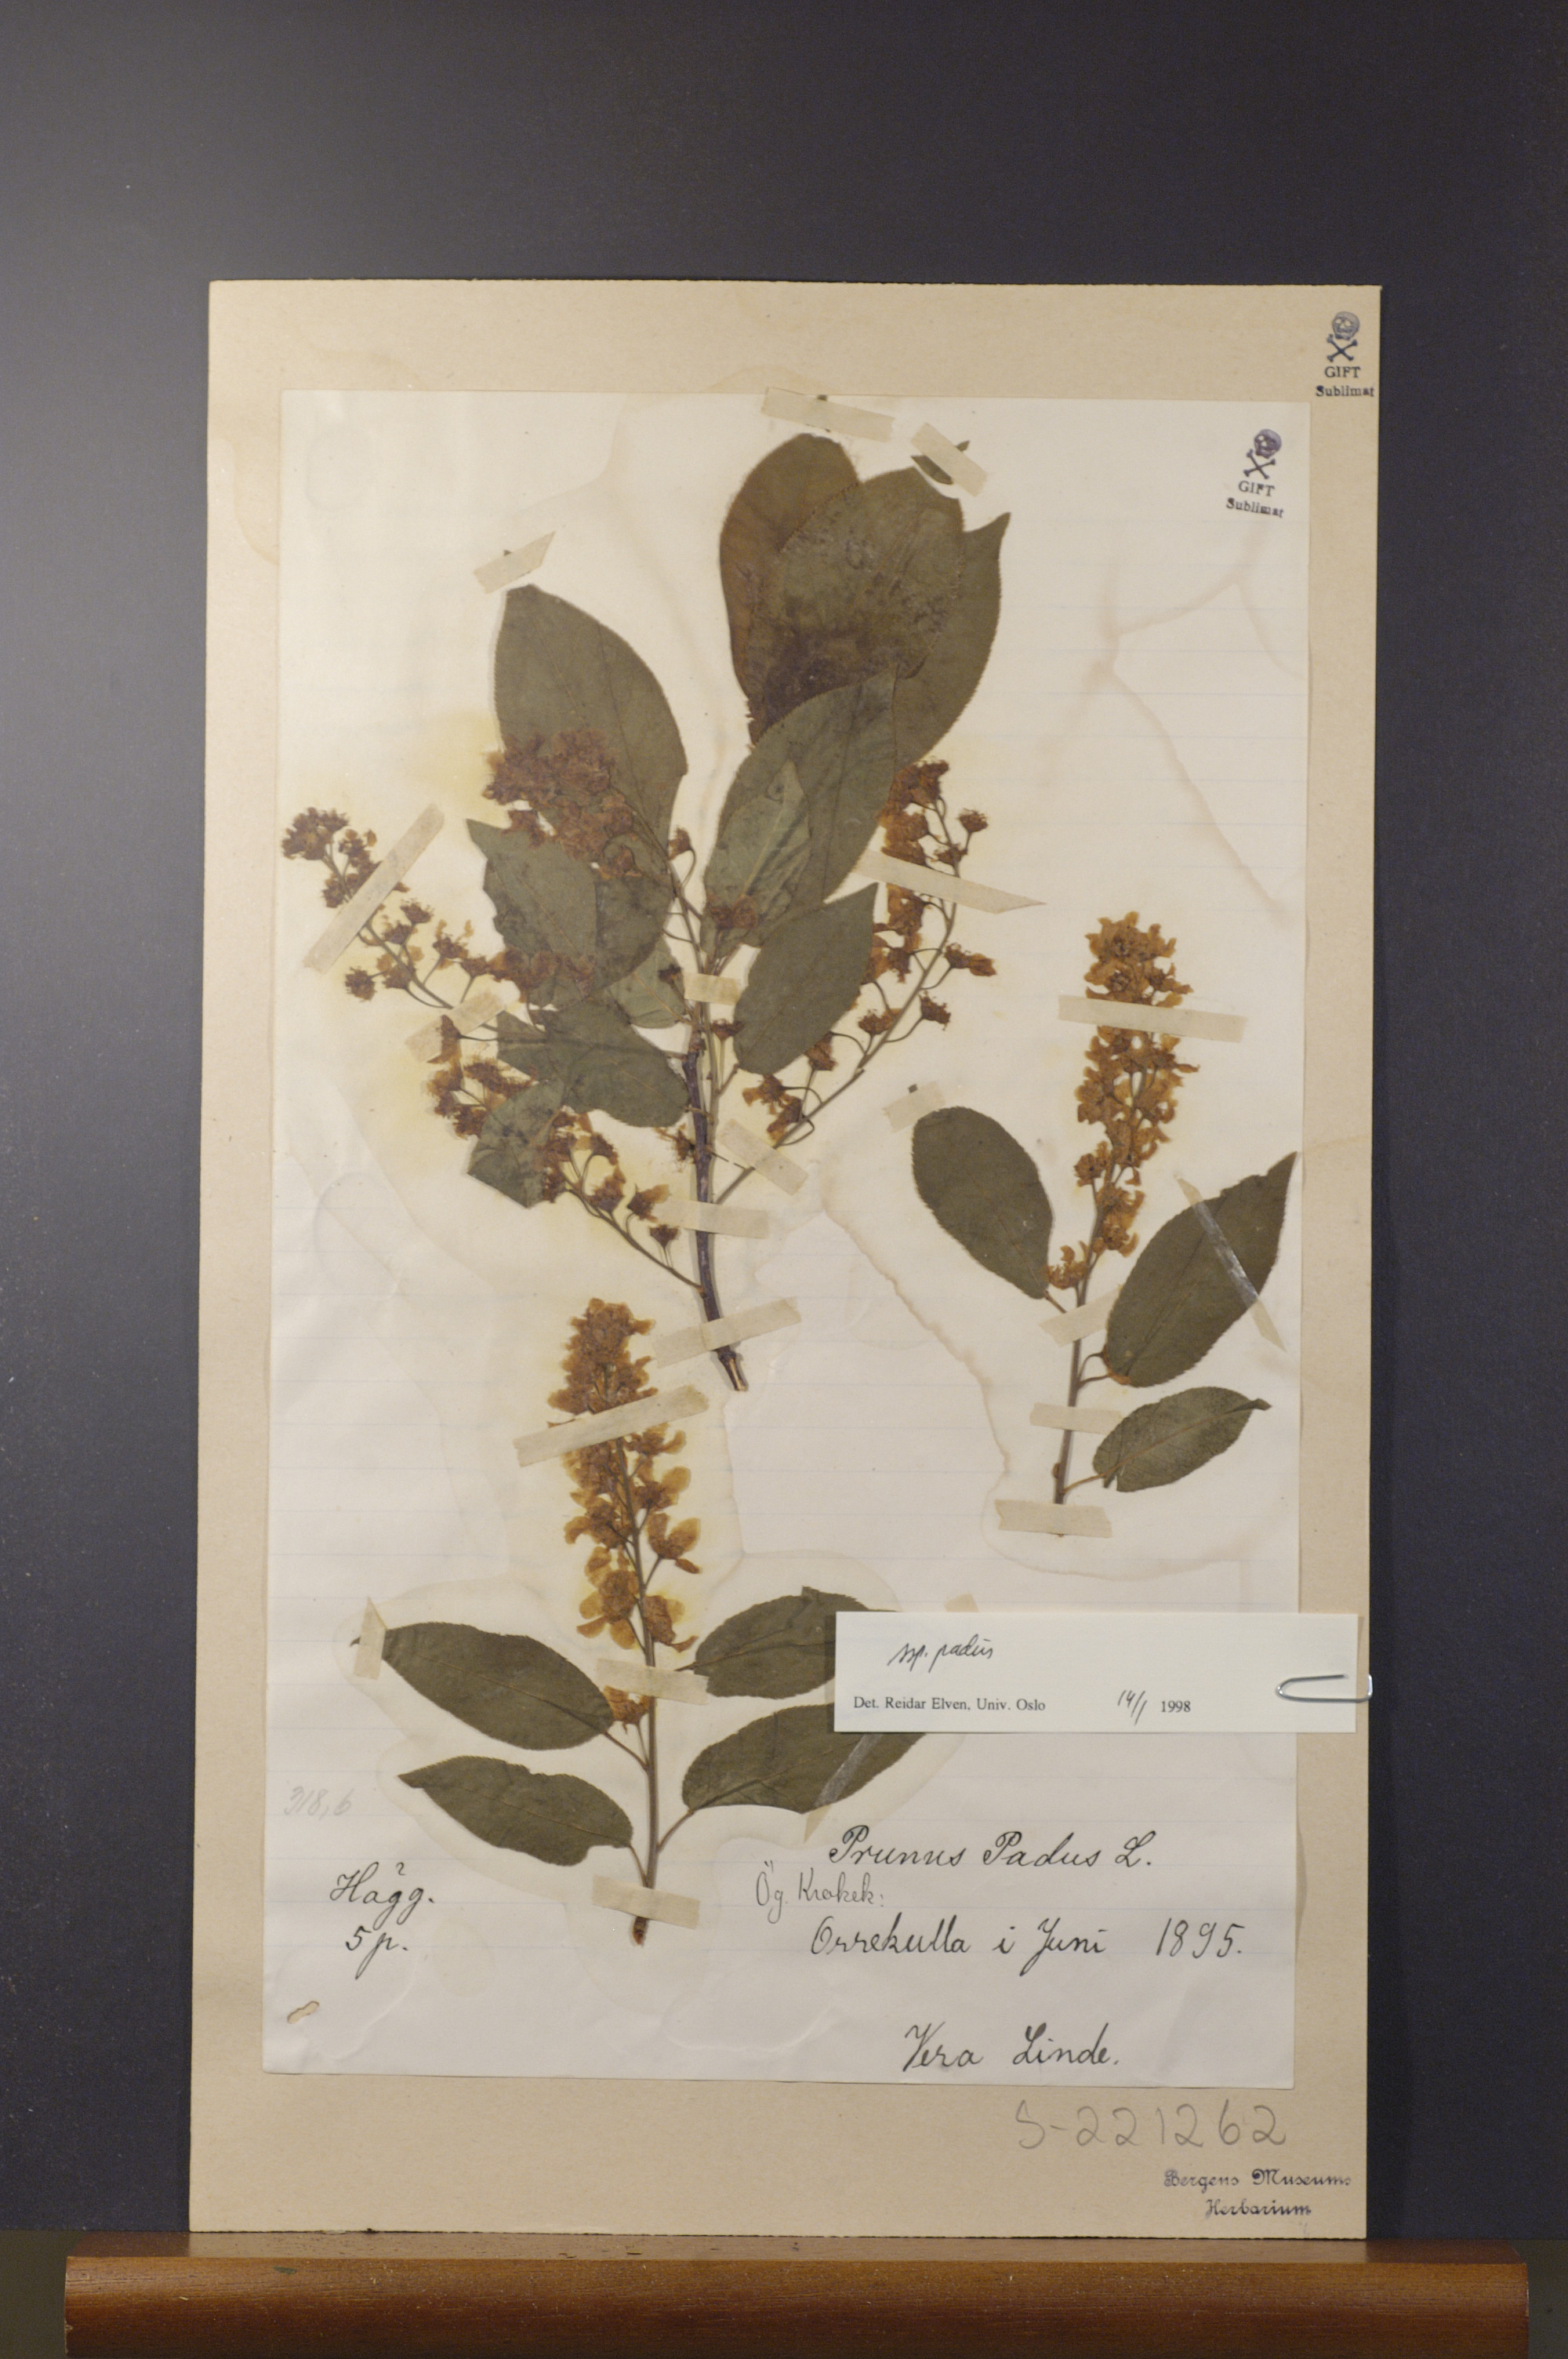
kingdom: Plantae
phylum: Tracheophyta
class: Magnoliopsida
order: Rosales
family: Rosaceae
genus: Prunus
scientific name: Prunus padus
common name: Bird cherry
